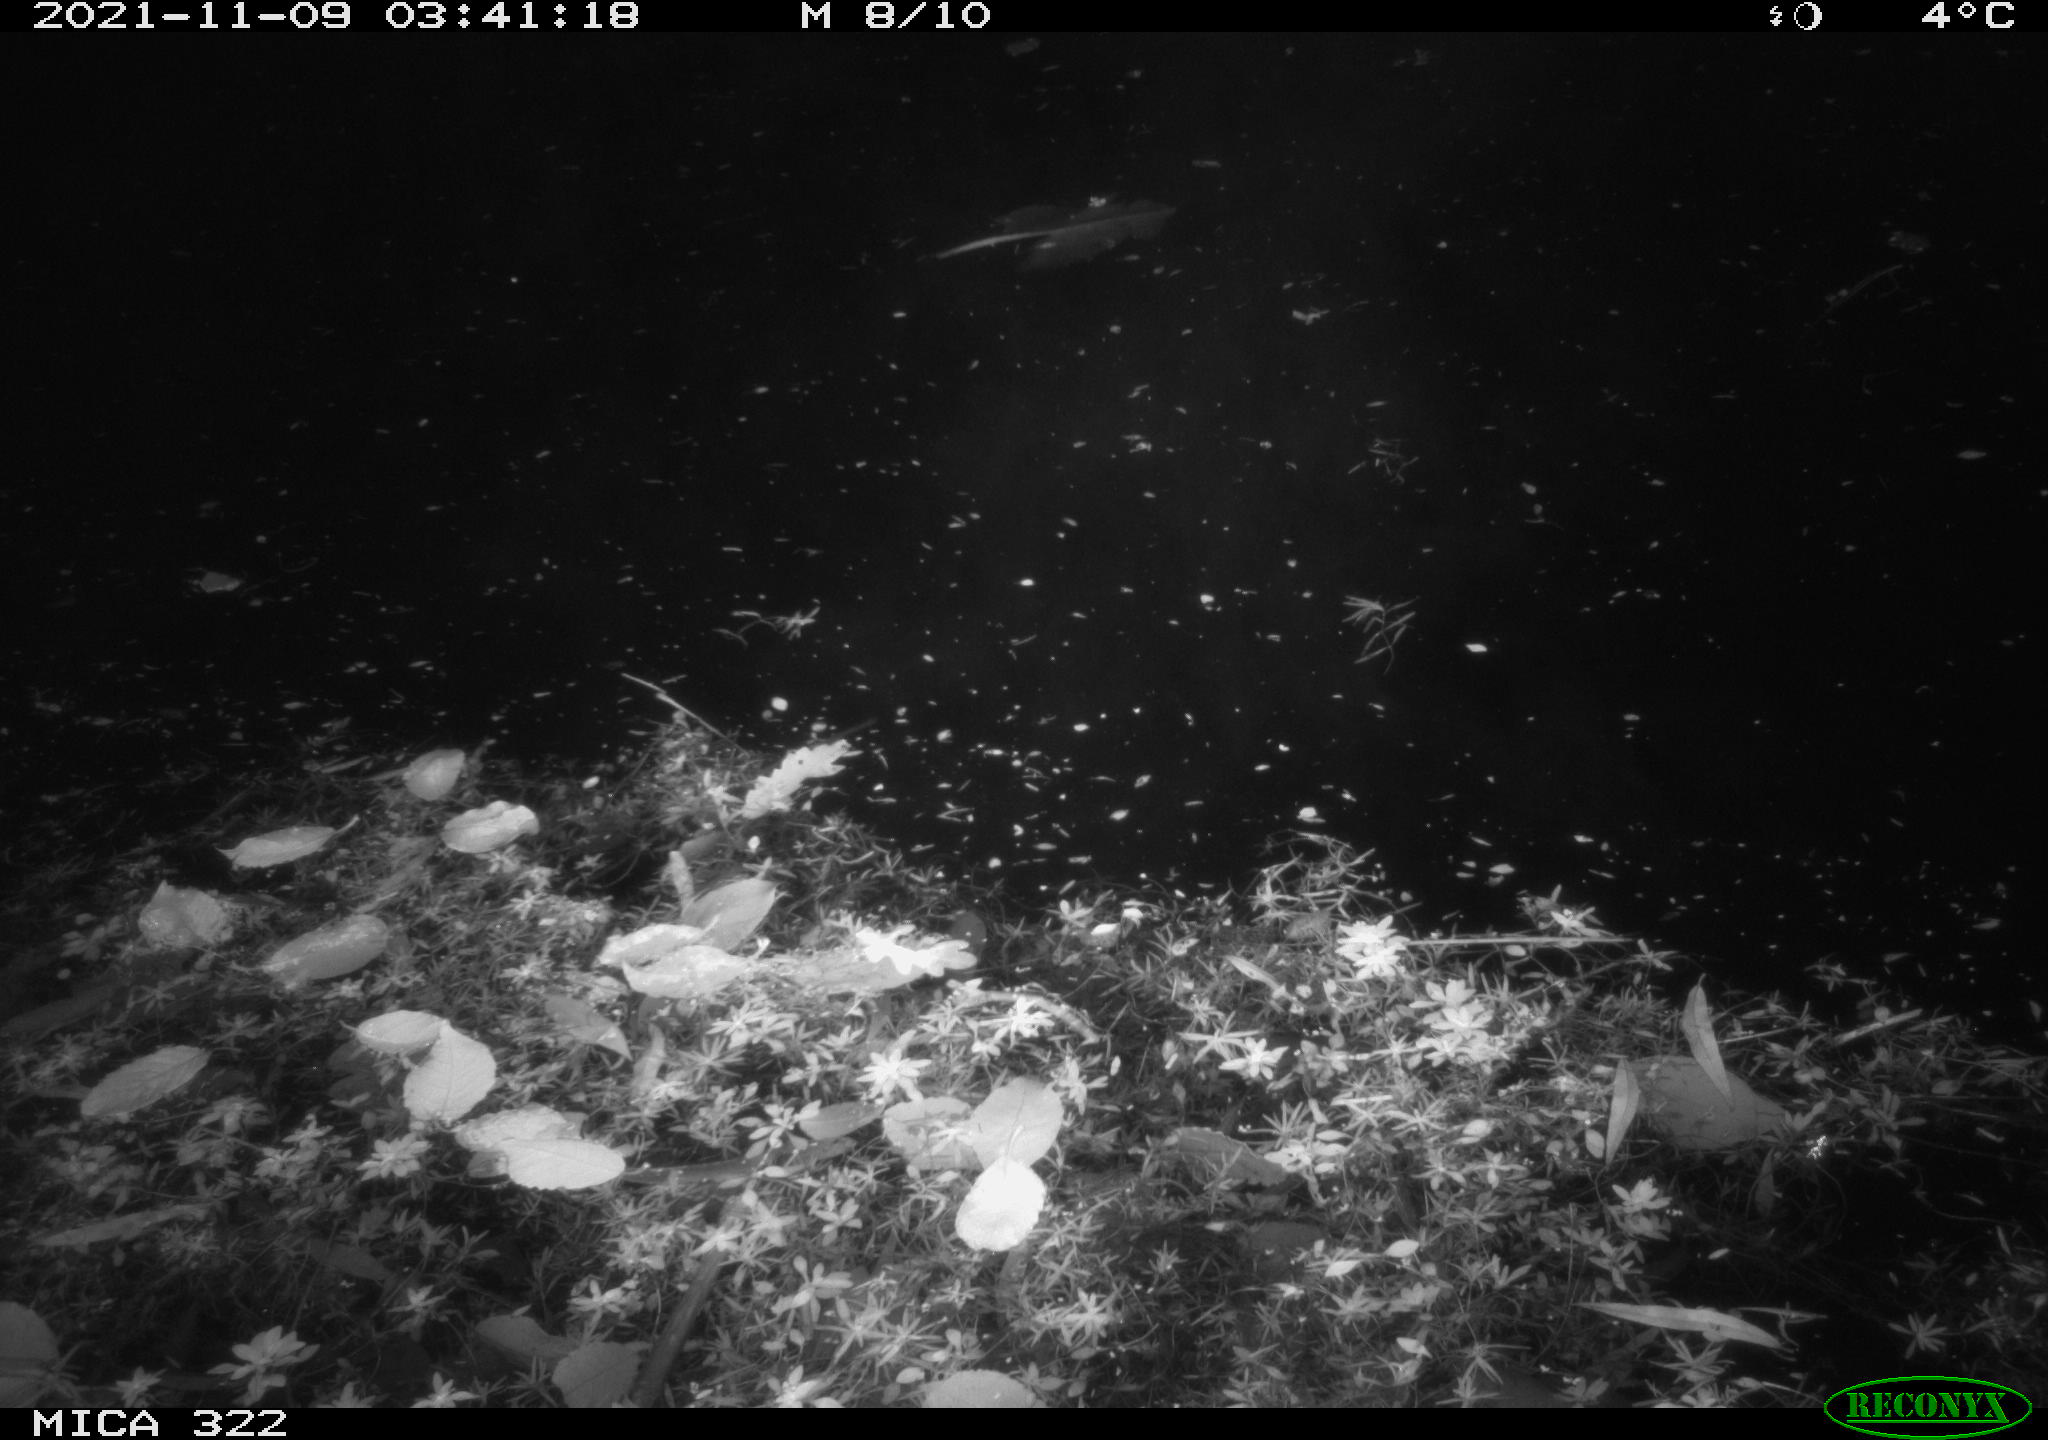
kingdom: Animalia
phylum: Chordata
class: Mammalia
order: Rodentia
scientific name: Rodentia
